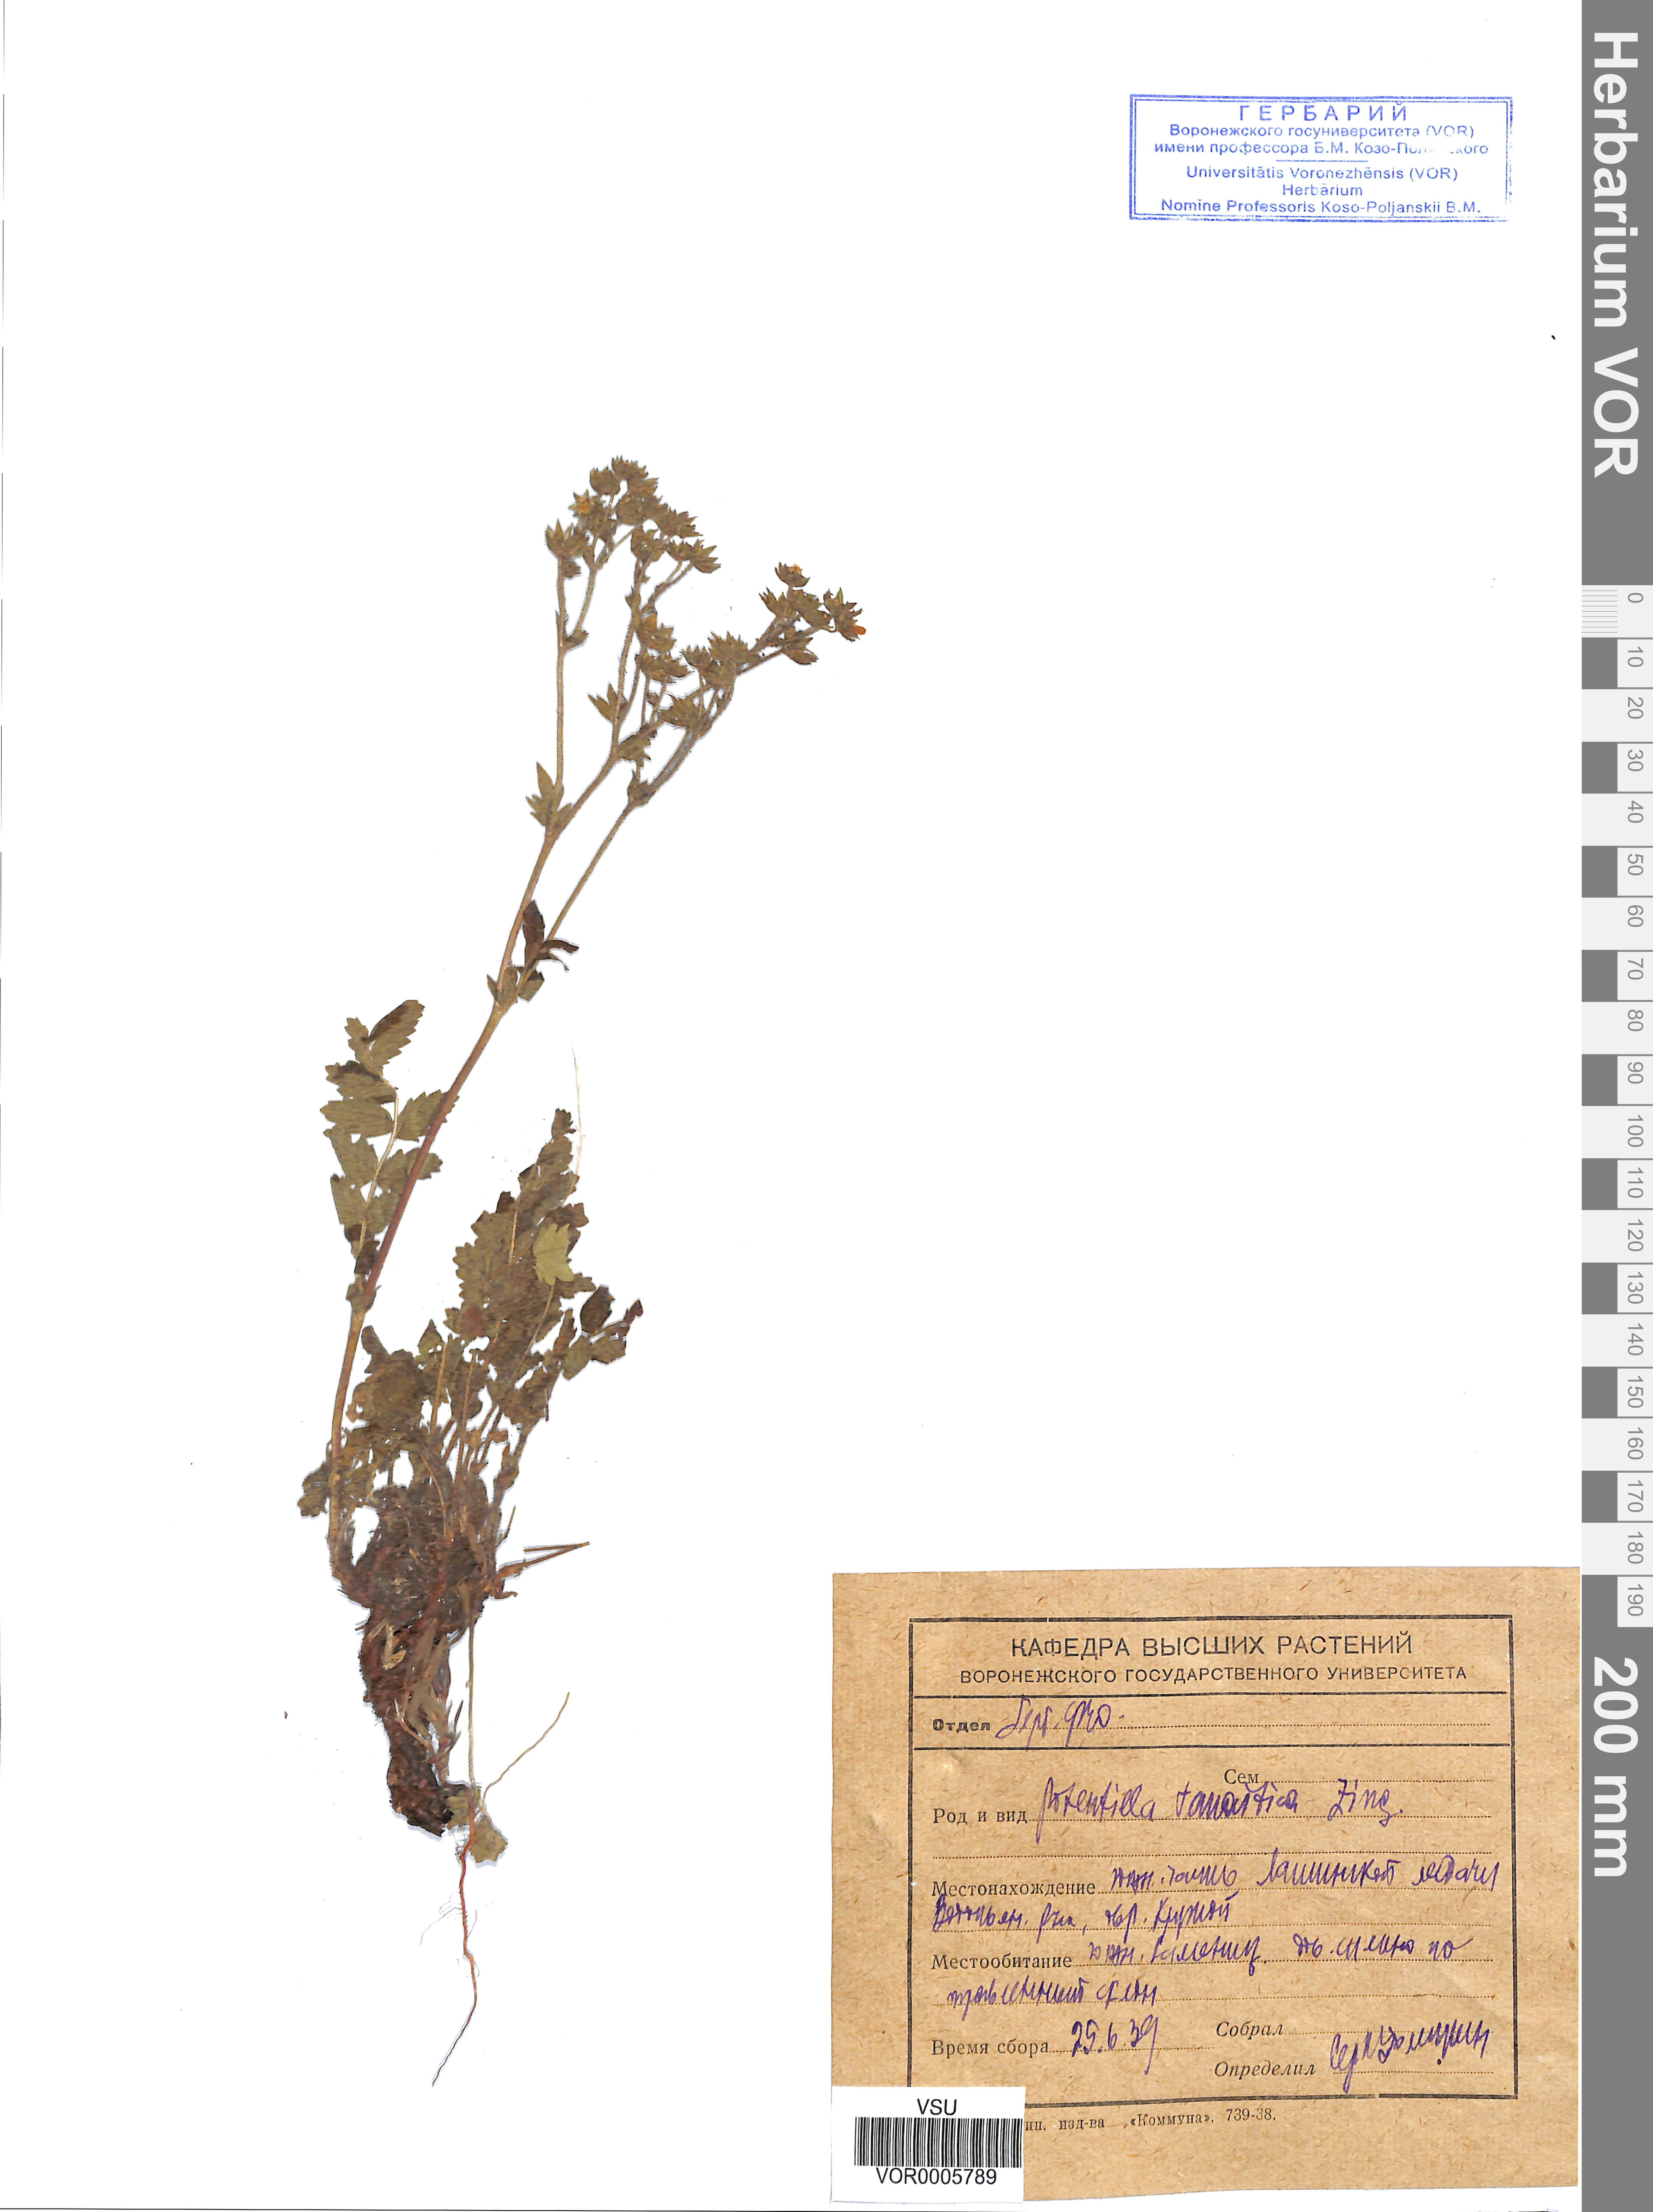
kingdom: Plantae
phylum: Tracheophyta
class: Magnoliopsida
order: Rosales
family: Rosaceae
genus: Potentilla
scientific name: Potentilla tanaitica
